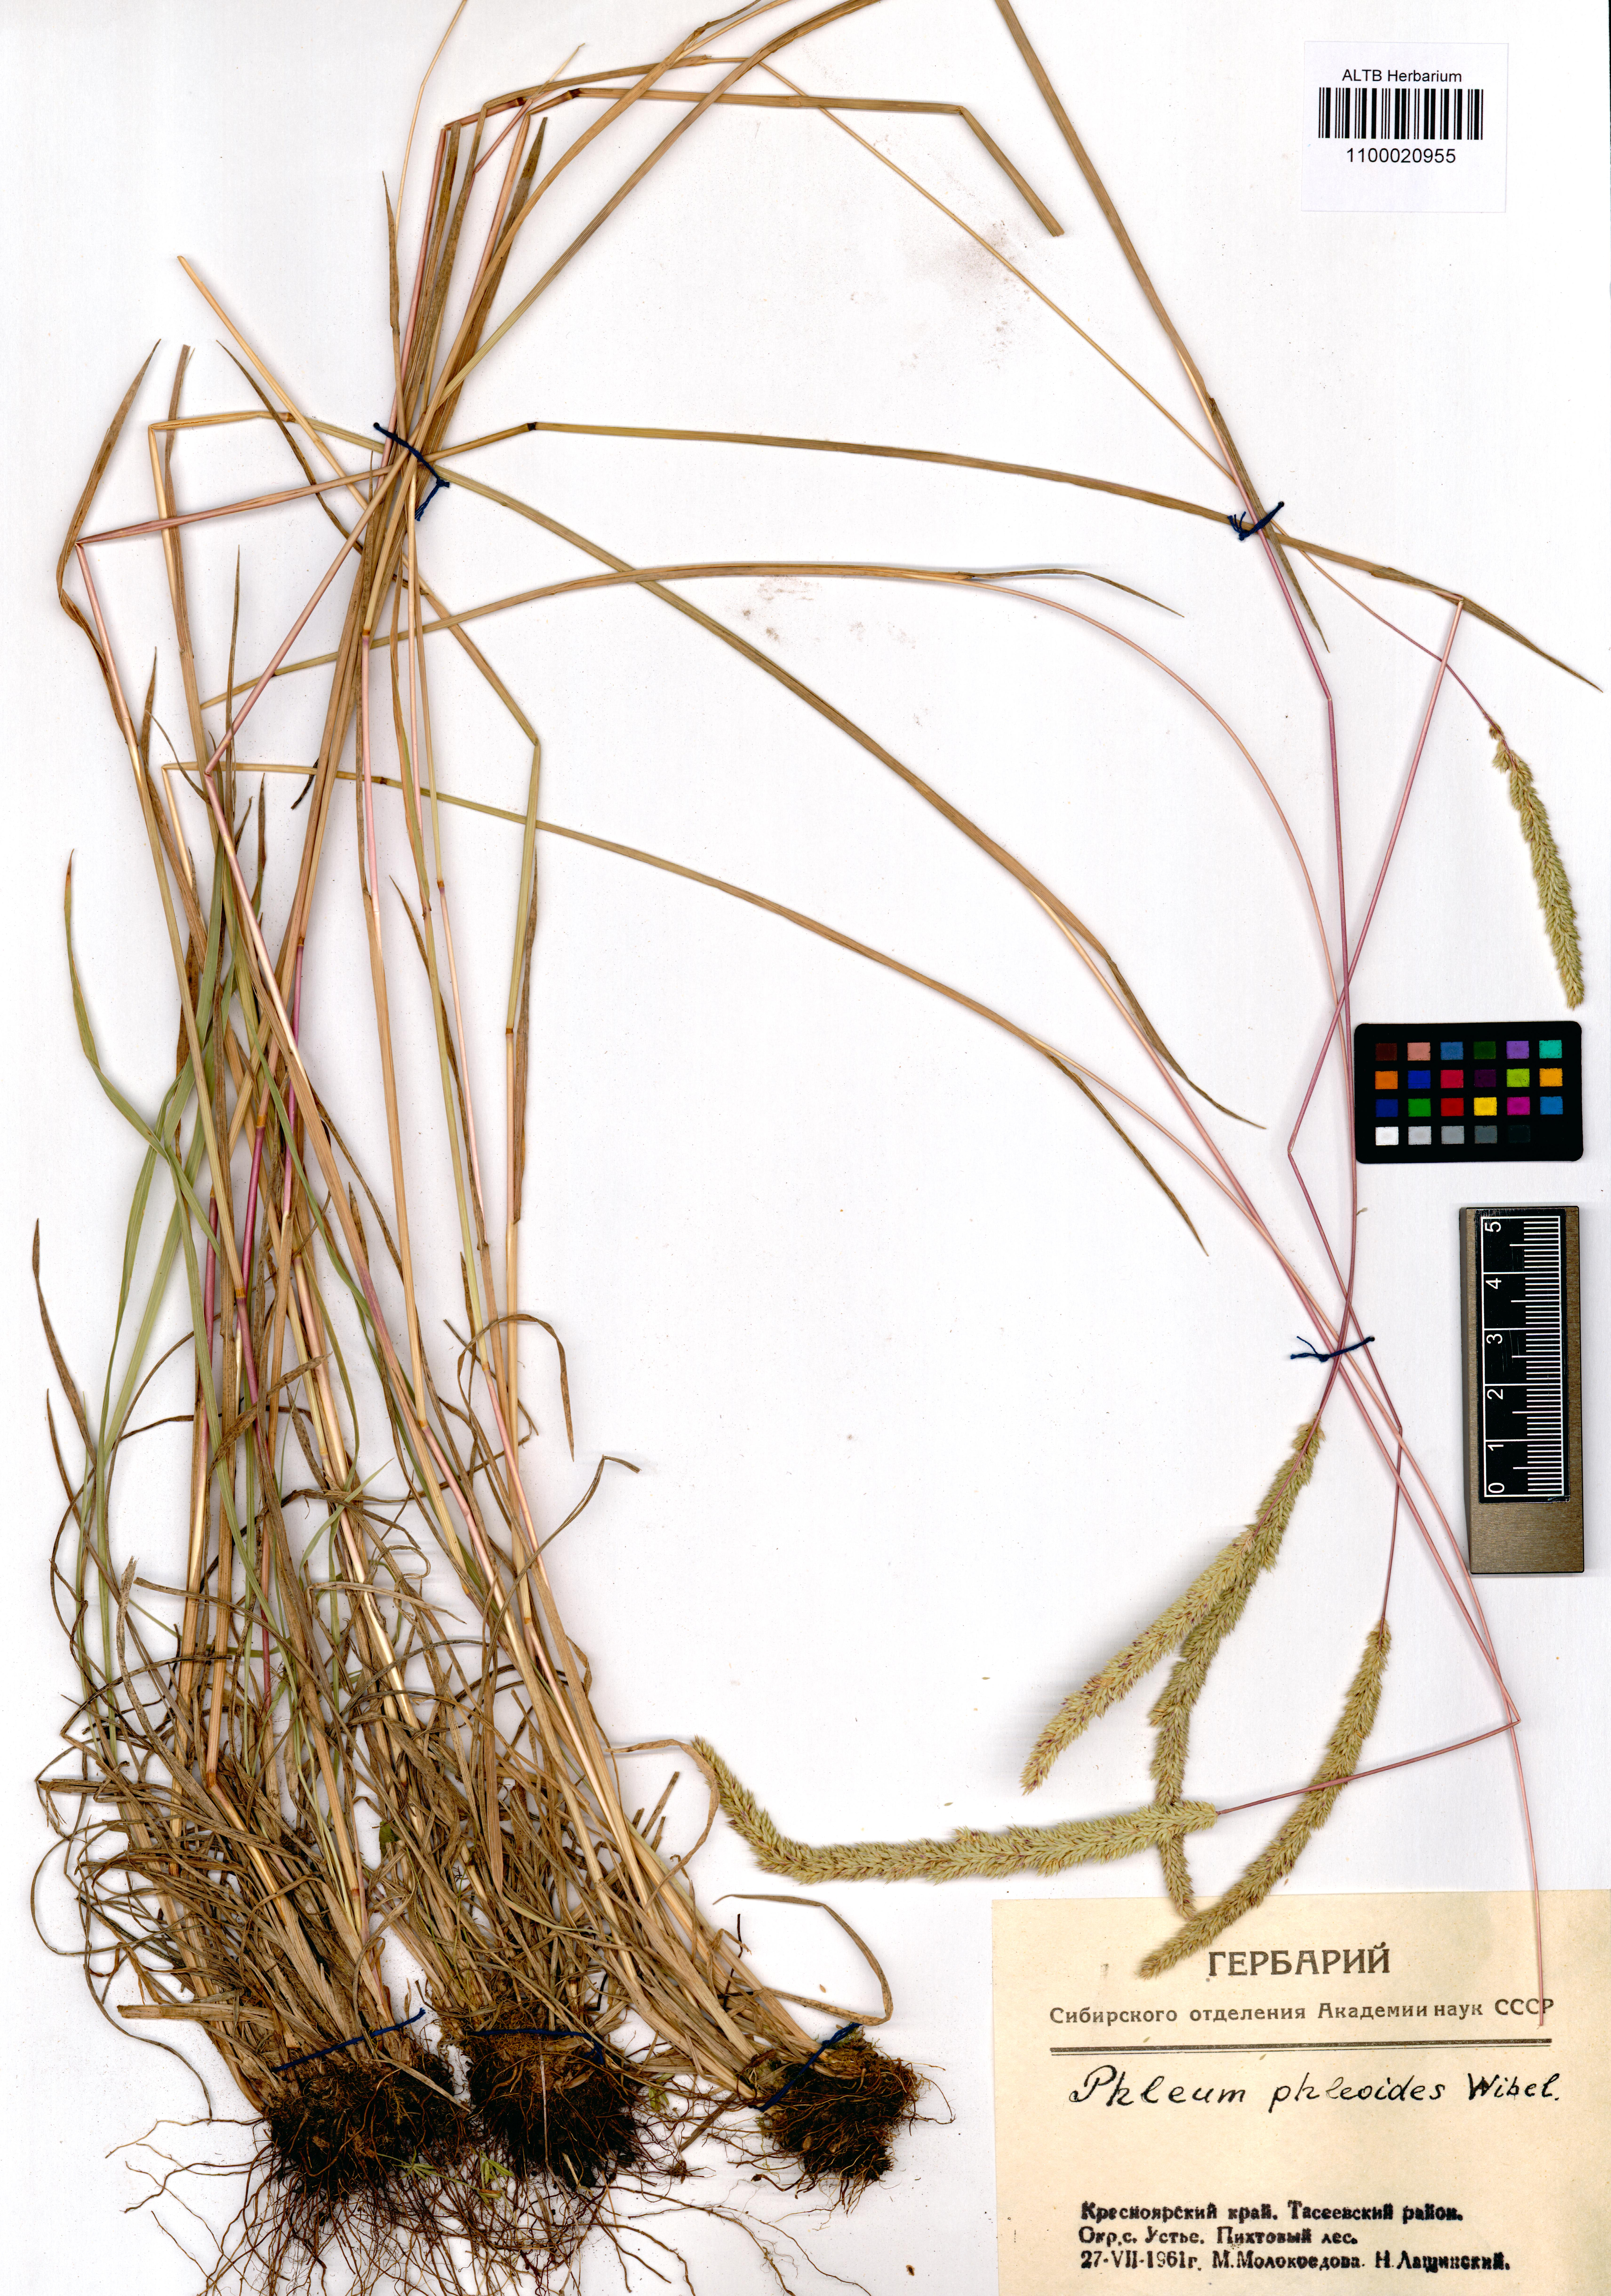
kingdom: Plantae
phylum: Tracheophyta
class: Liliopsida
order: Poales
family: Poaceae
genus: Phleum
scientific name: Phleum phleoides
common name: Purple-stem cat's-tail
